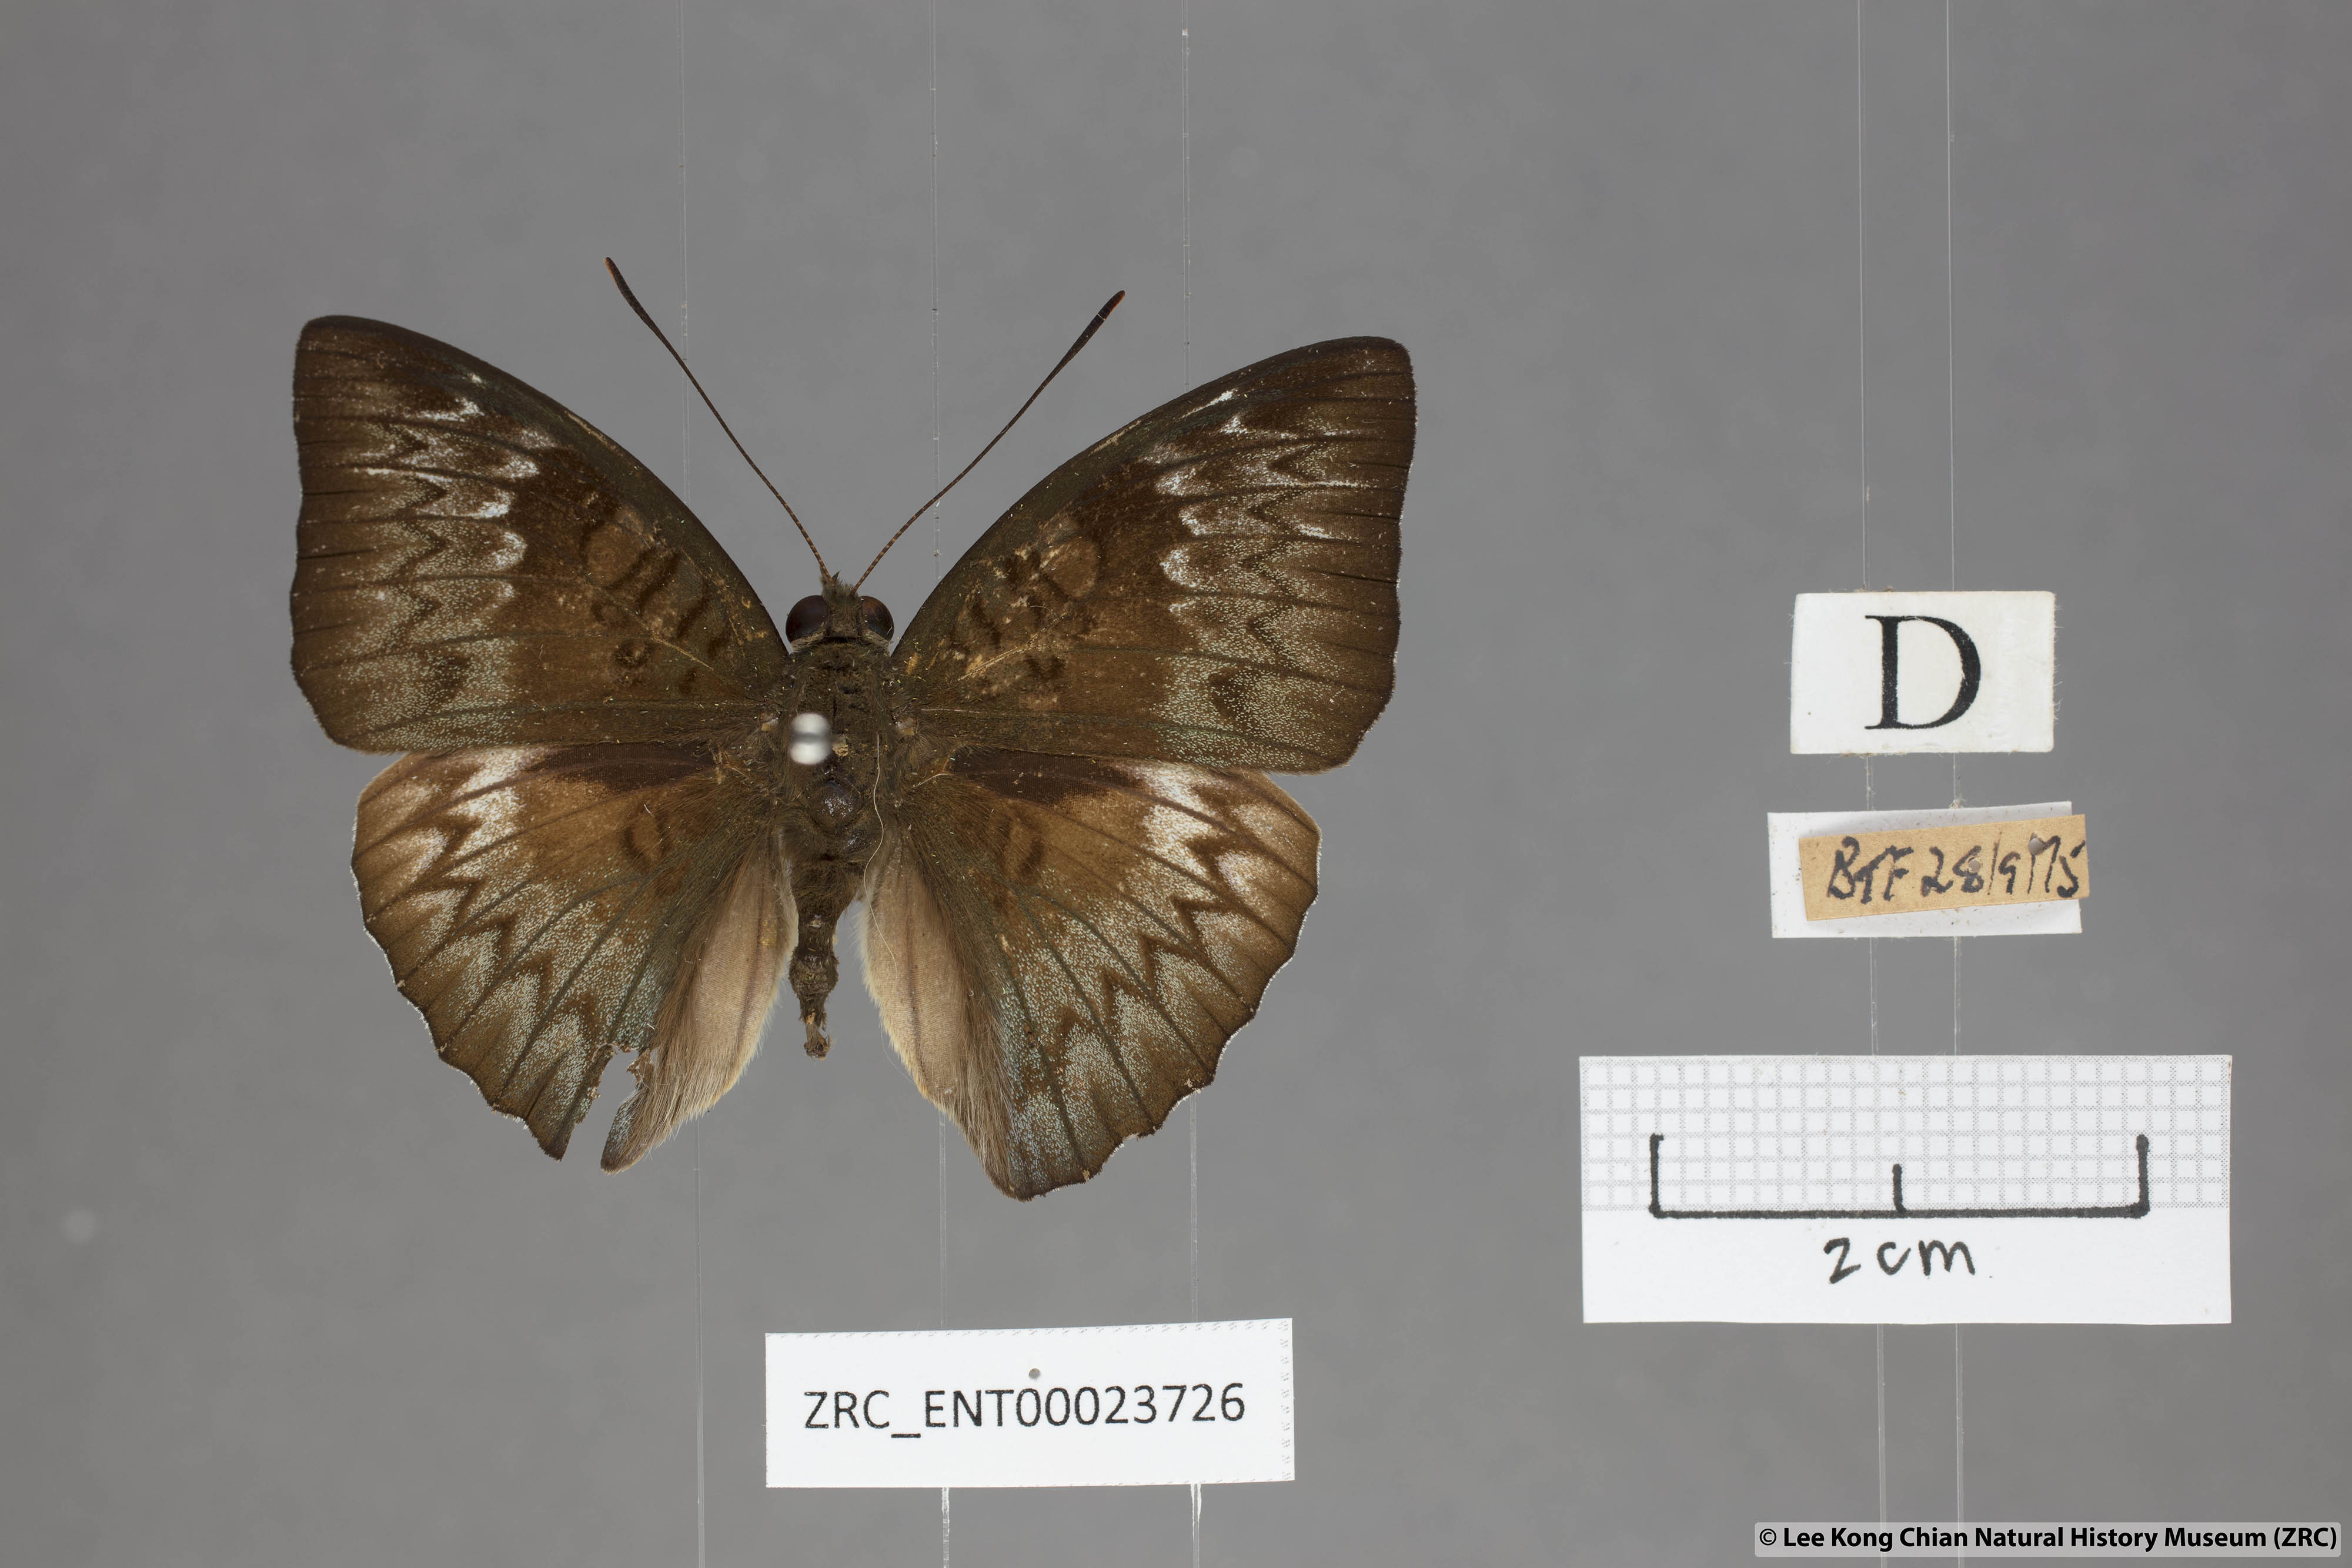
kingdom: Animalia
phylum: Arthropoda
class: Insecta
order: Lepidoptera
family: Nymphalidae
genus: Euthalia
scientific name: Euthalia monina
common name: Powdered baron
